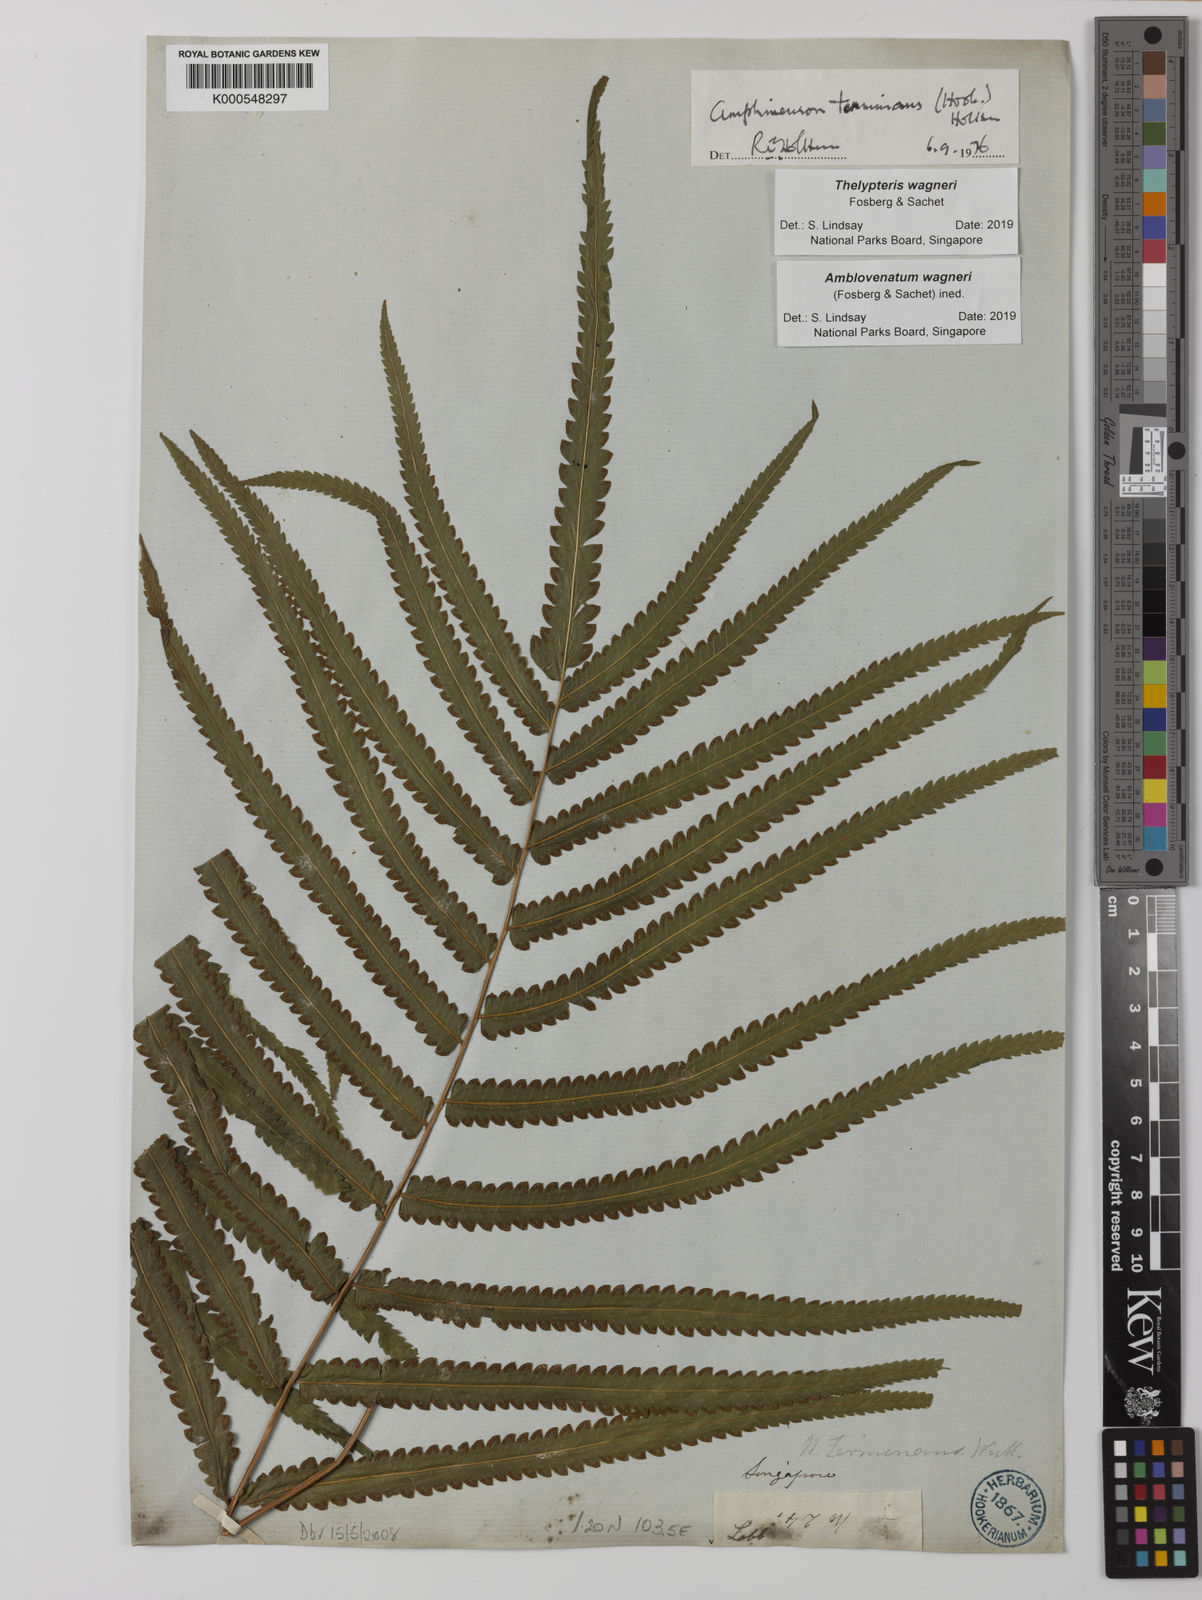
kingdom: Plantae
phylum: Tracheophyta
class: Polypodiopsida
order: Polypodiales
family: Thelypteridaceae
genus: Amblovenatum
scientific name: Amblovenatum terminans
